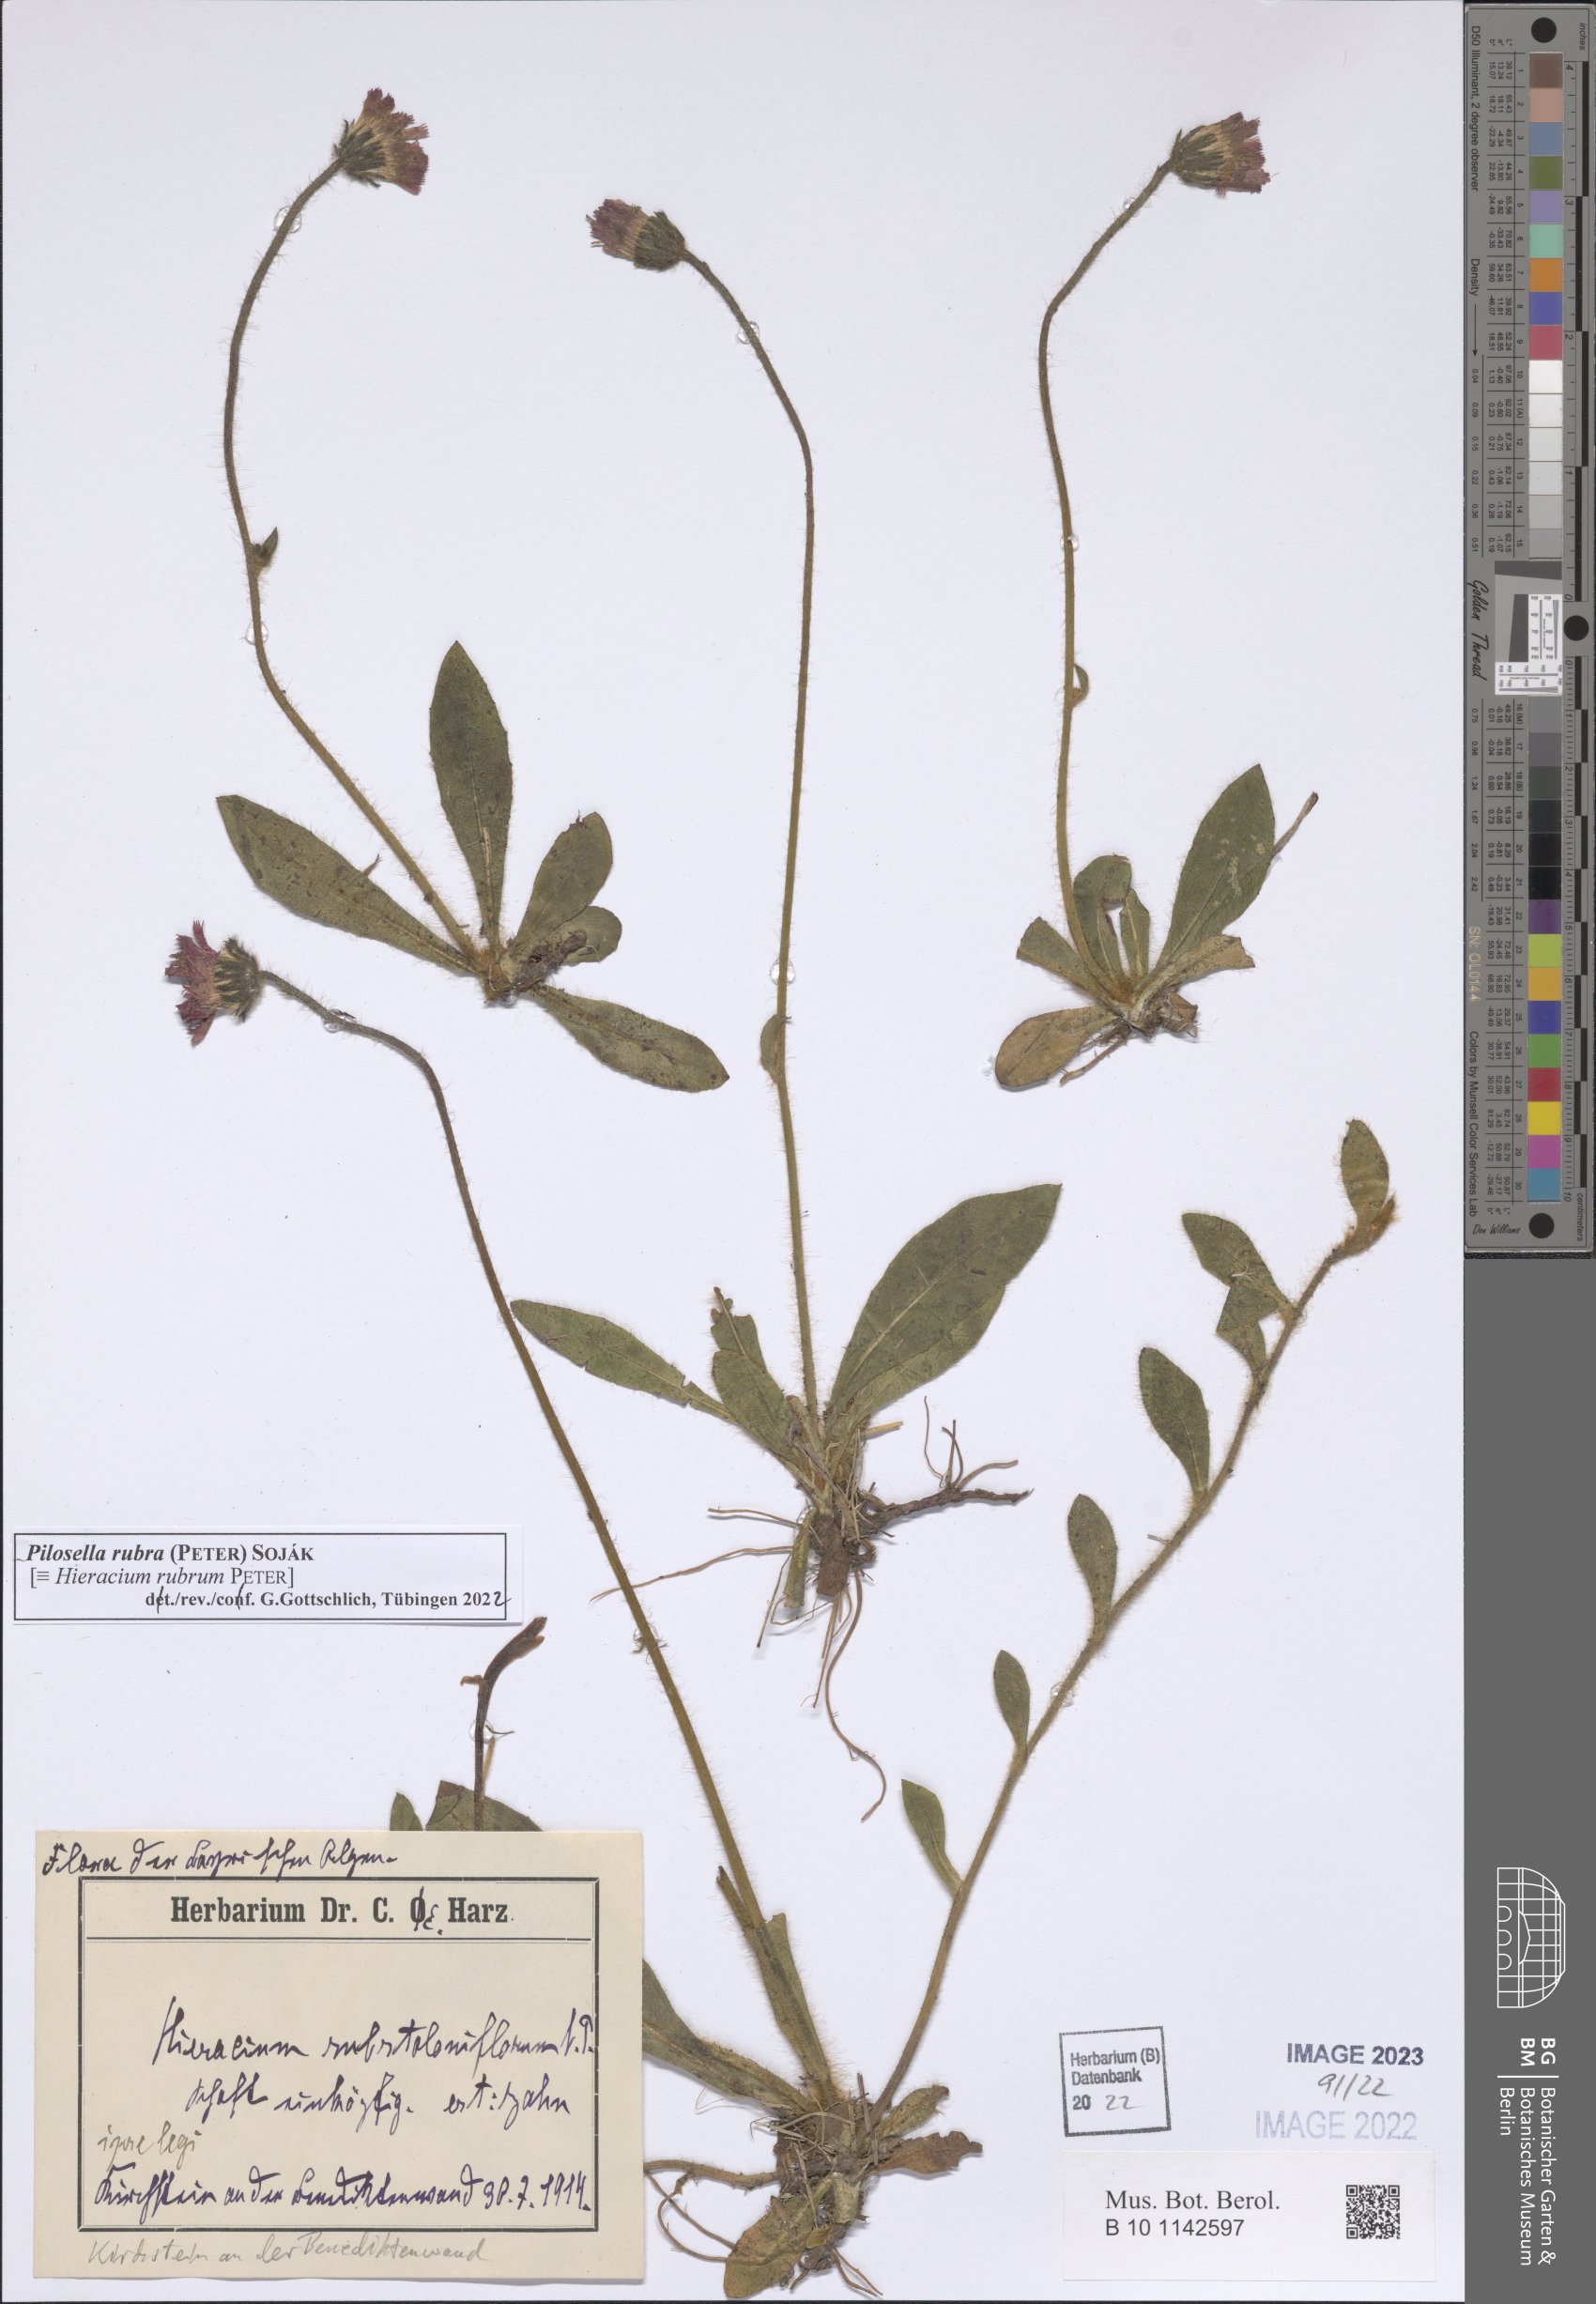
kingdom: Plantae
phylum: Tracheophyta
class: Magnoliopsida
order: Asterales
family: Asteraceae
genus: Pilosella
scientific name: Pilosella rubra
